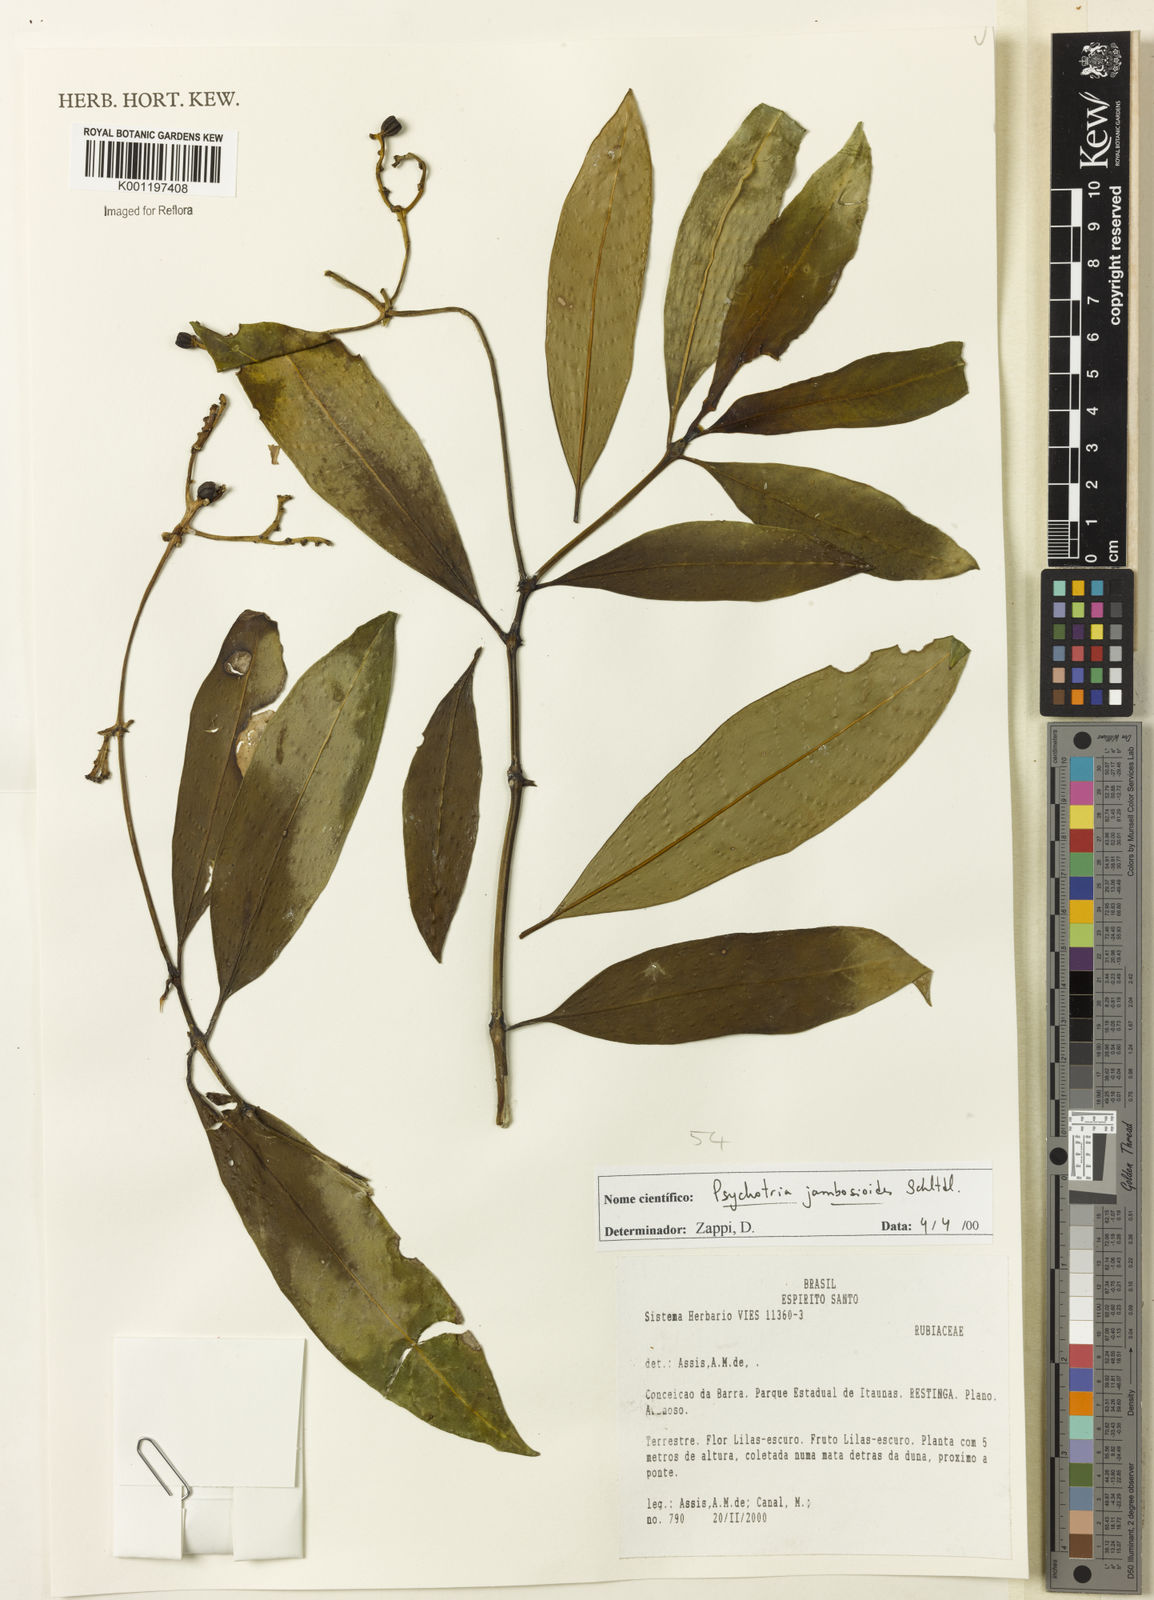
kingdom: Plantae
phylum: Tracheophyta
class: Magnoliopsida
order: Gentianales
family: Rubiaceae
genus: Palicourea
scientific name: Palicourea jambosioides
